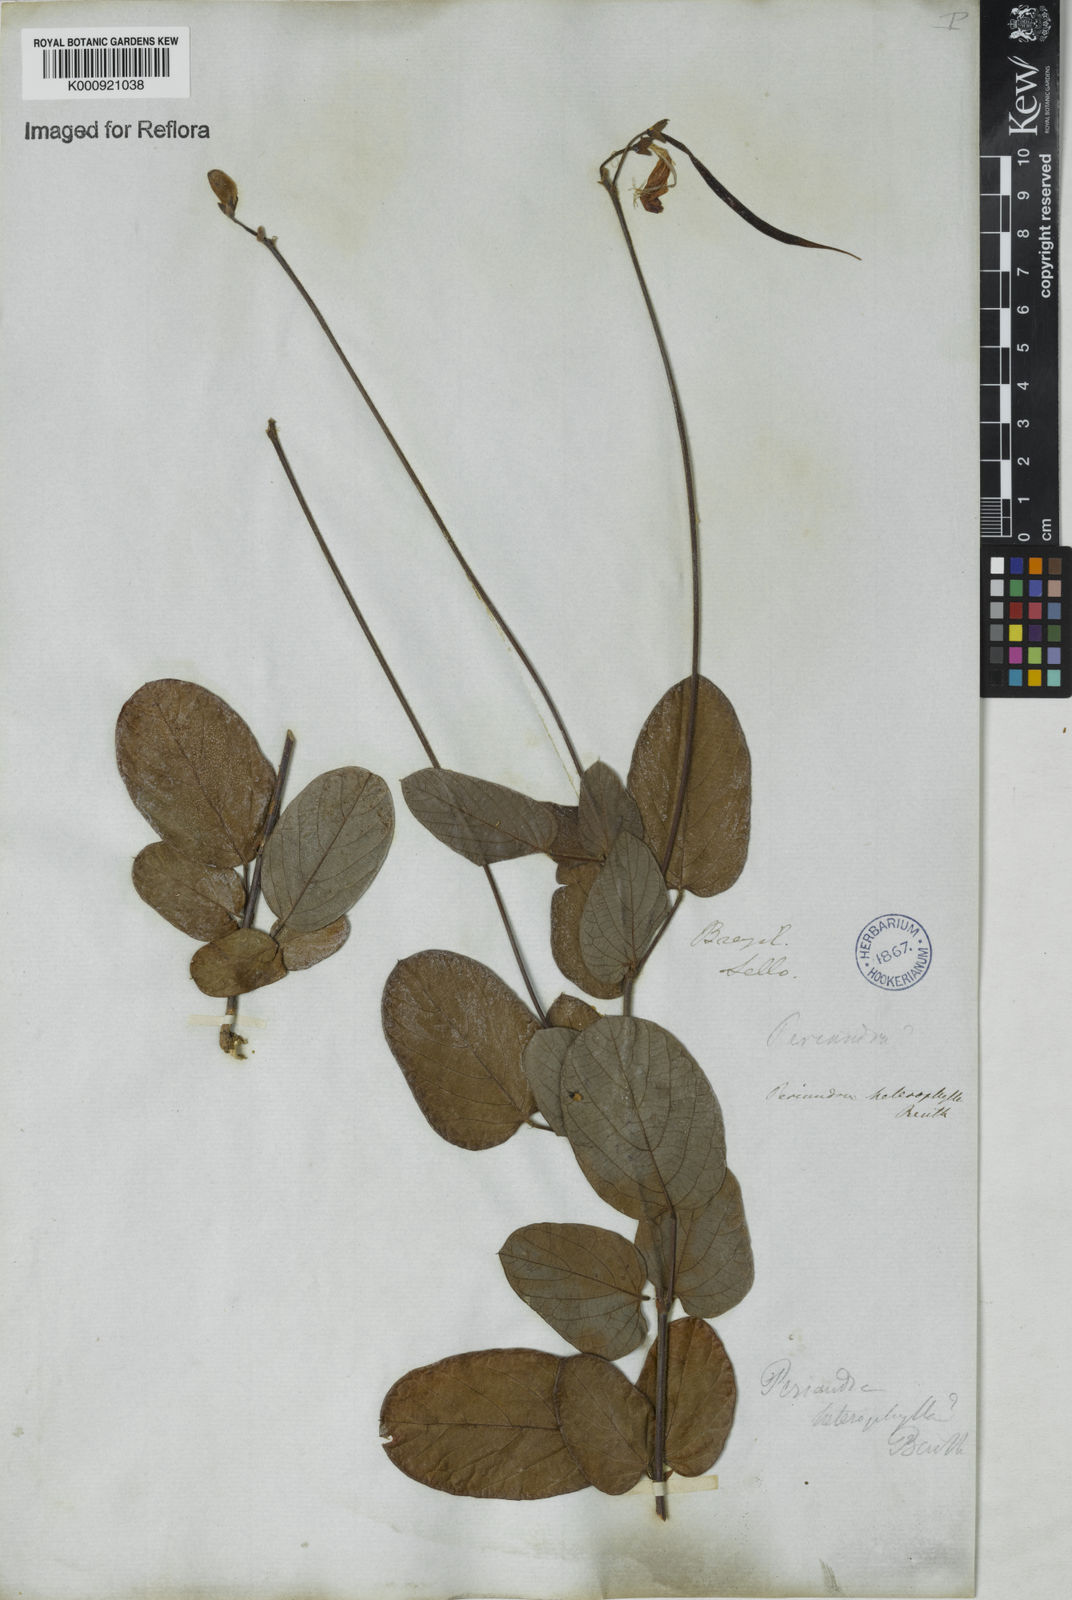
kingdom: Plantae
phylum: Tracheophyta
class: Magnoliopsida
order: Fabales
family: Fabaceae
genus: Periandra
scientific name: Periandra heterophylla
